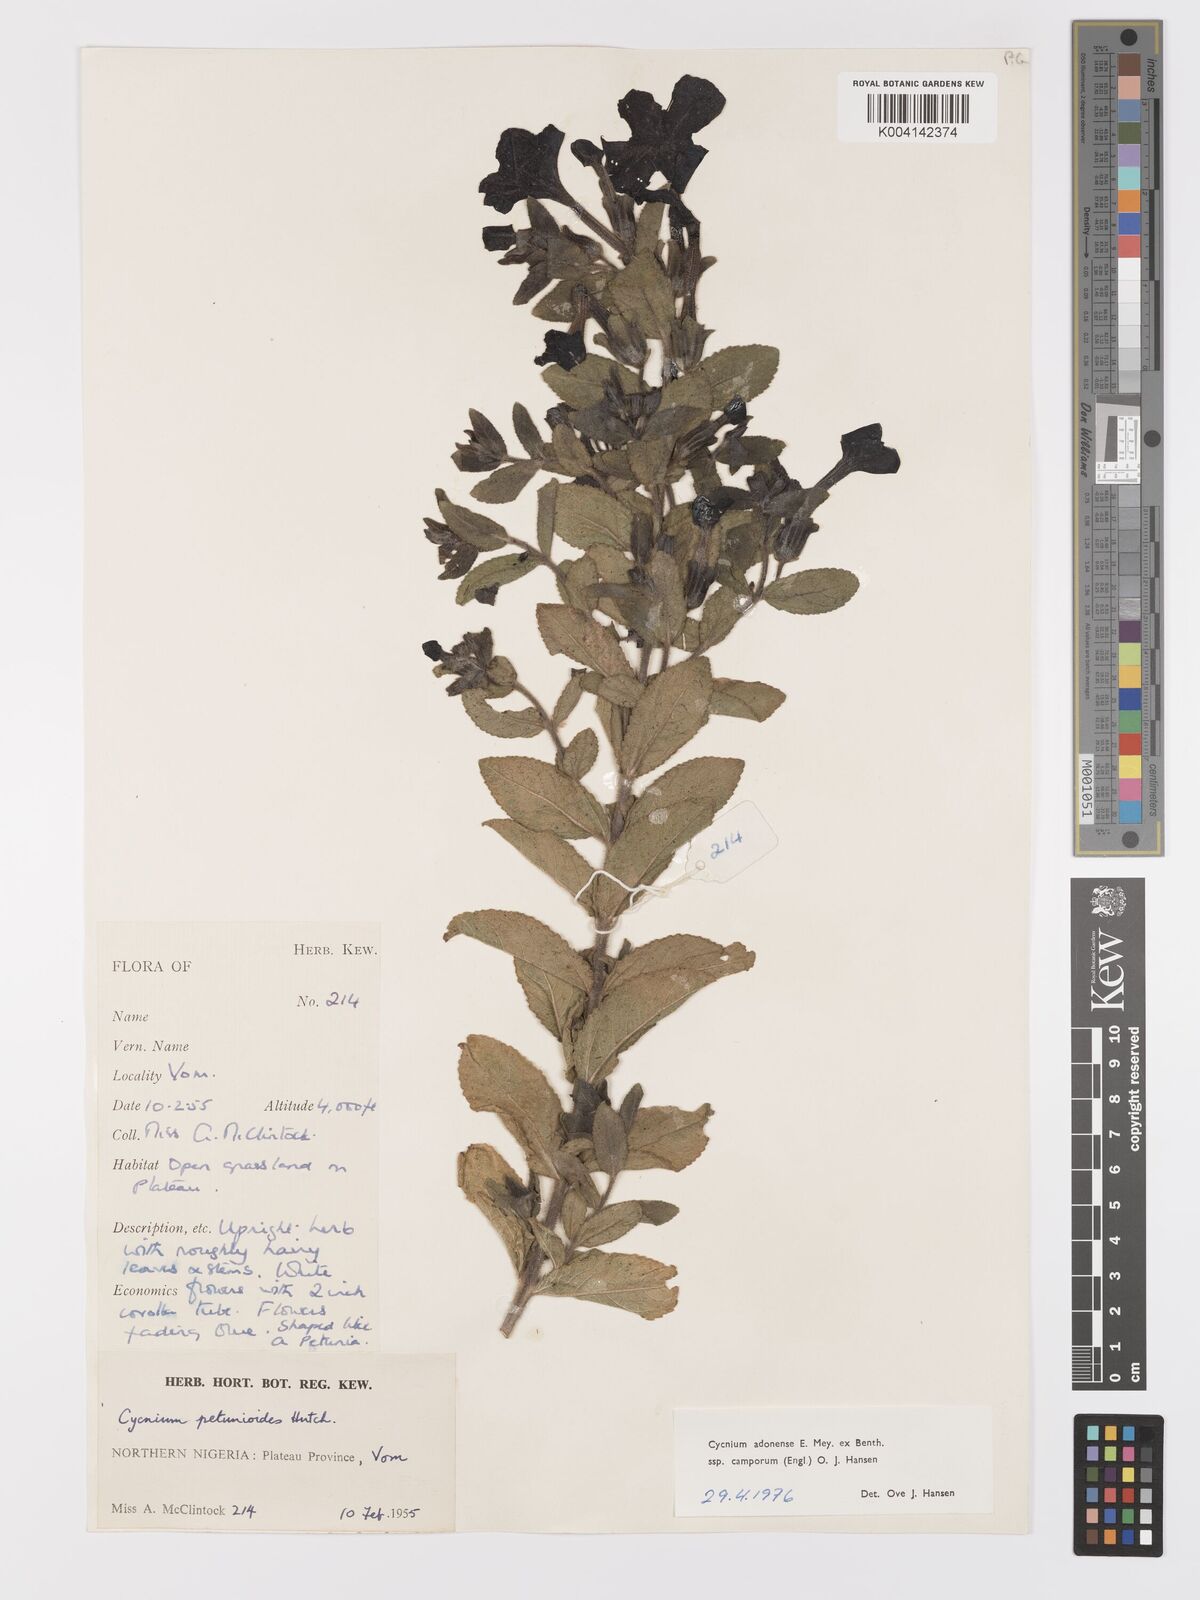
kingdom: Plantae
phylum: Tracheophyta
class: Magnoliopsida
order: Lamiales
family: Orobanchaceae
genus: Cycnium
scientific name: Cycnium adoense
